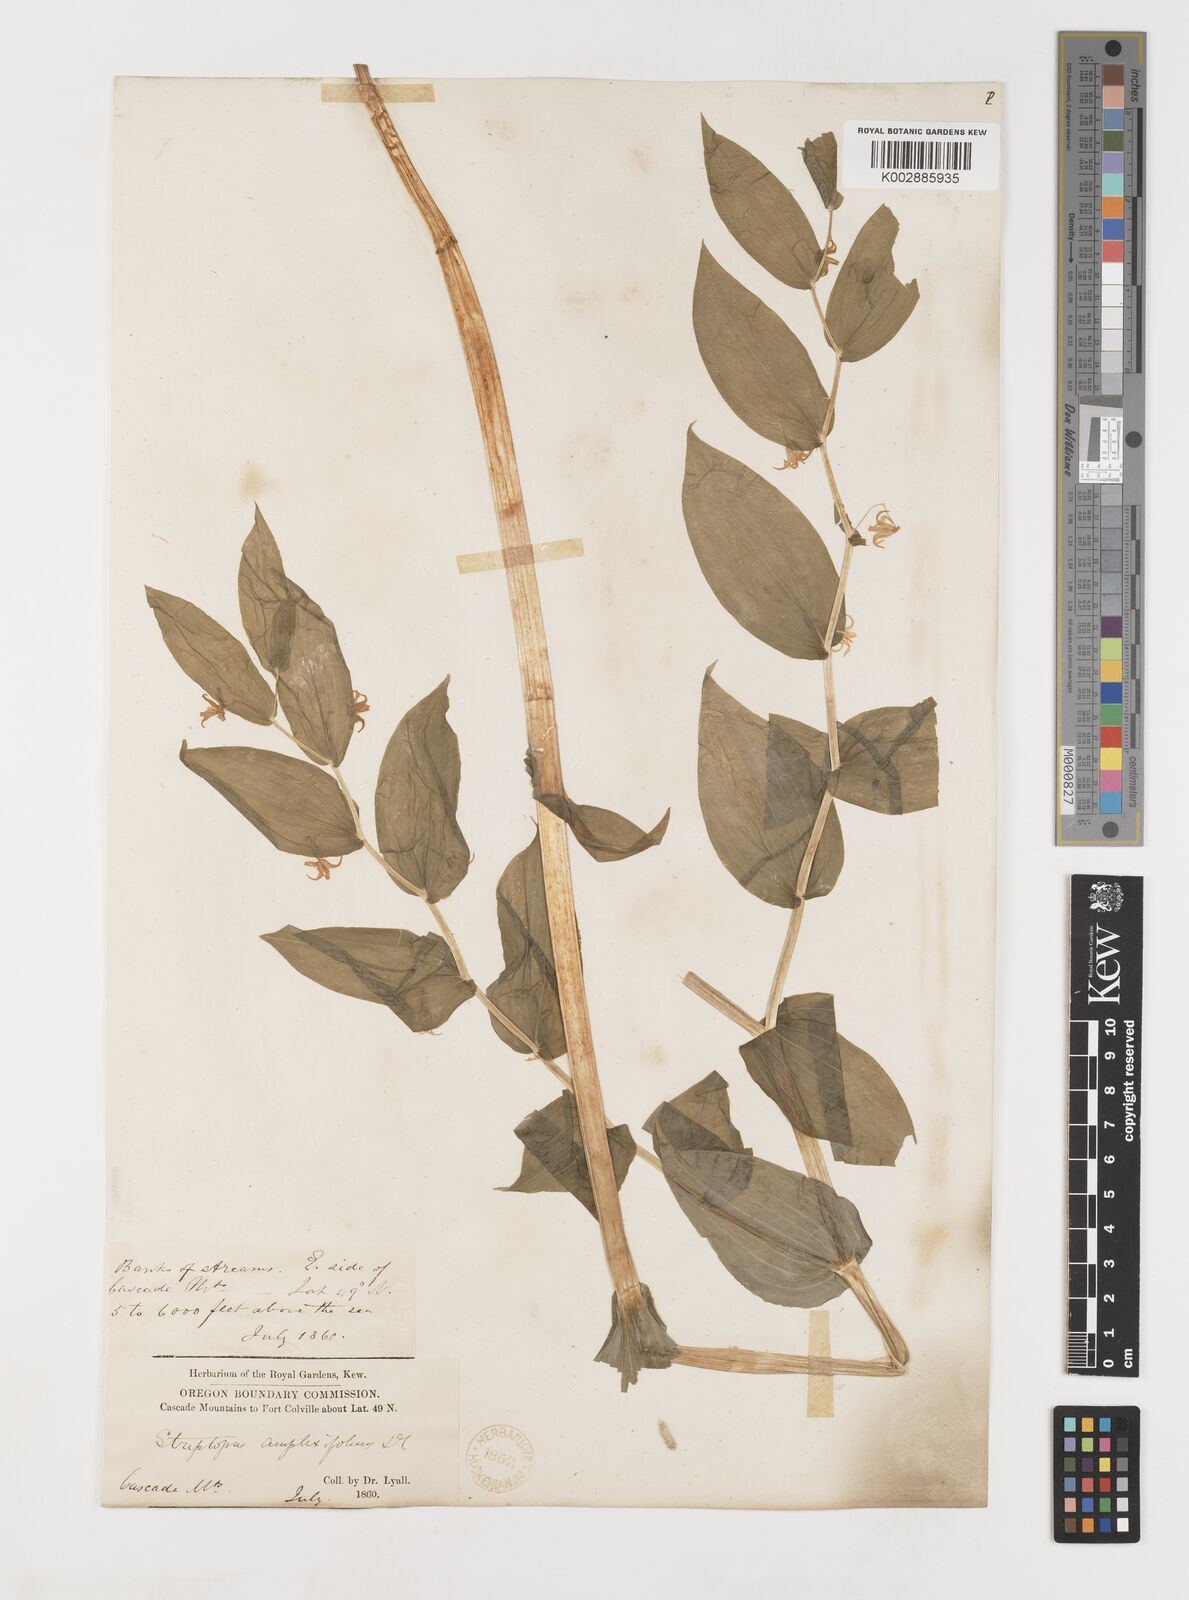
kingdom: Plantae
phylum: Tracheophyta
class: Liliopsida
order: Liliales
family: Liliaceae
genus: Streptopus
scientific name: Streptopus amplexifolius
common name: Clasp twisted stalk
